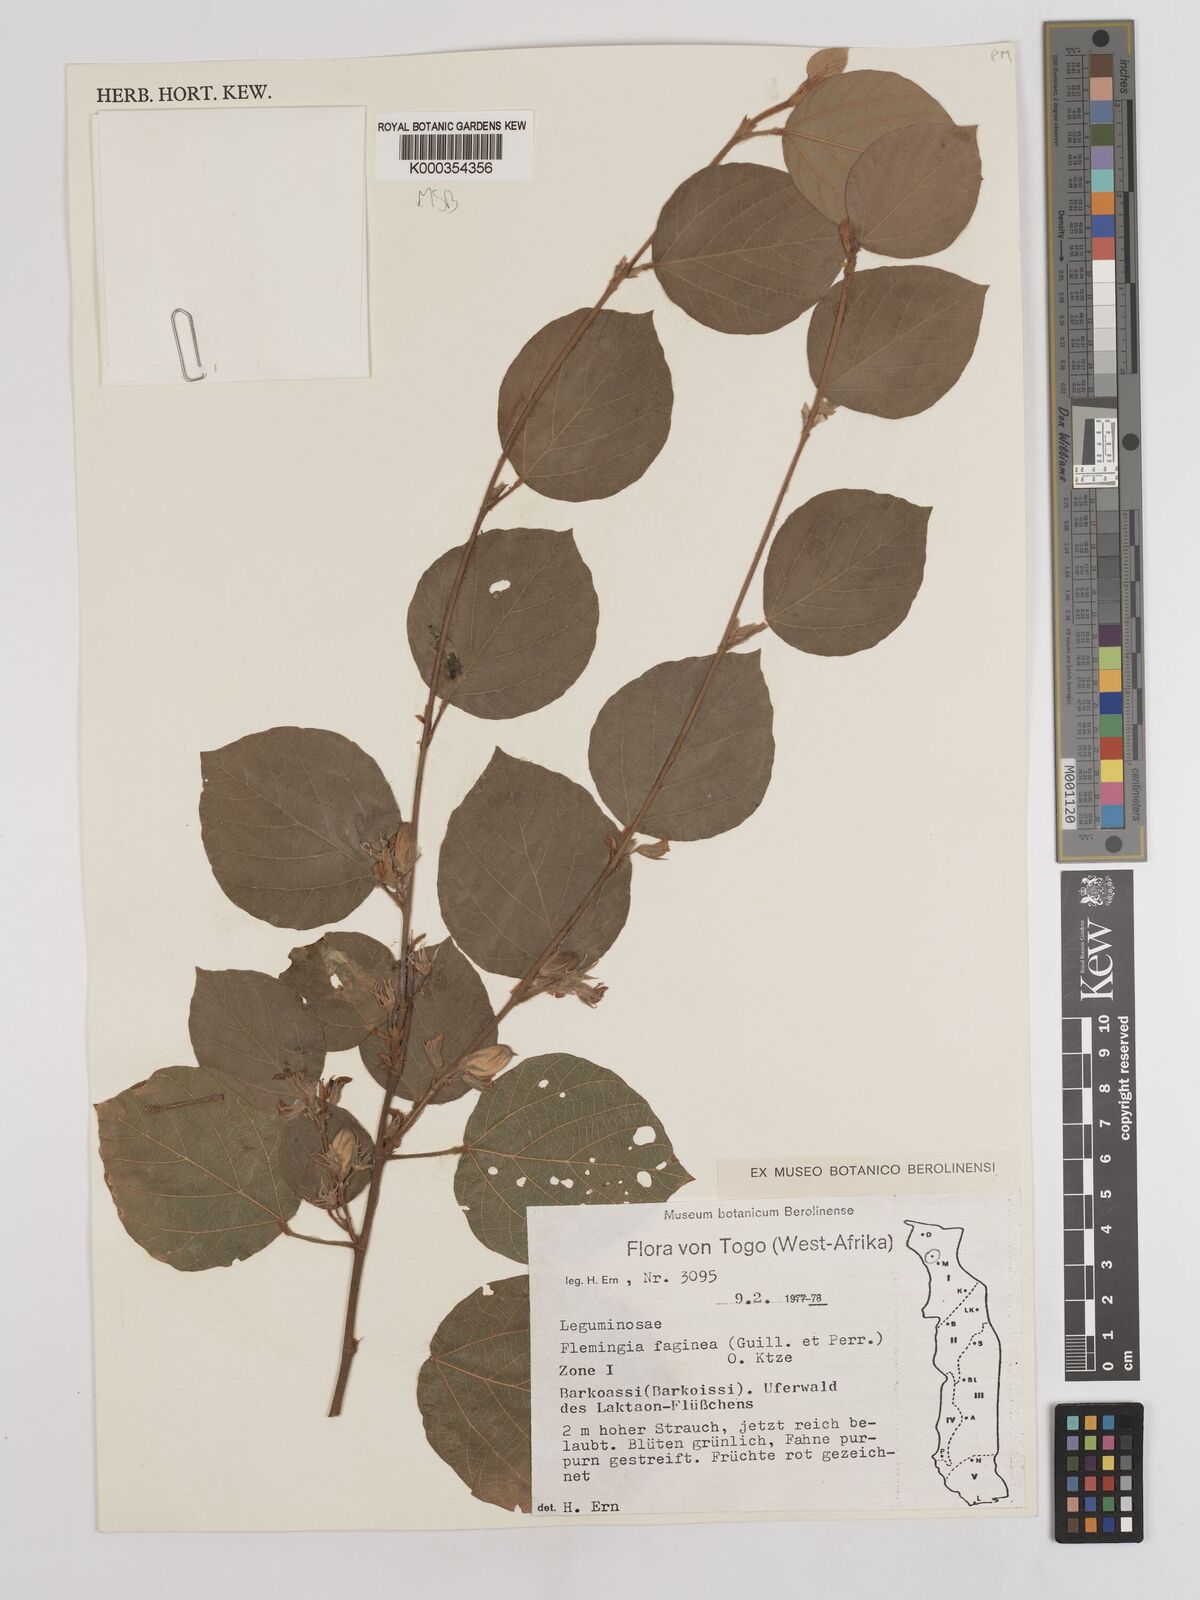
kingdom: Plantae
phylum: Tracheophyta
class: Magnoliopsida
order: Fabales
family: Fabaceae
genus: Flemingia
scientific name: Flemingia faginea
